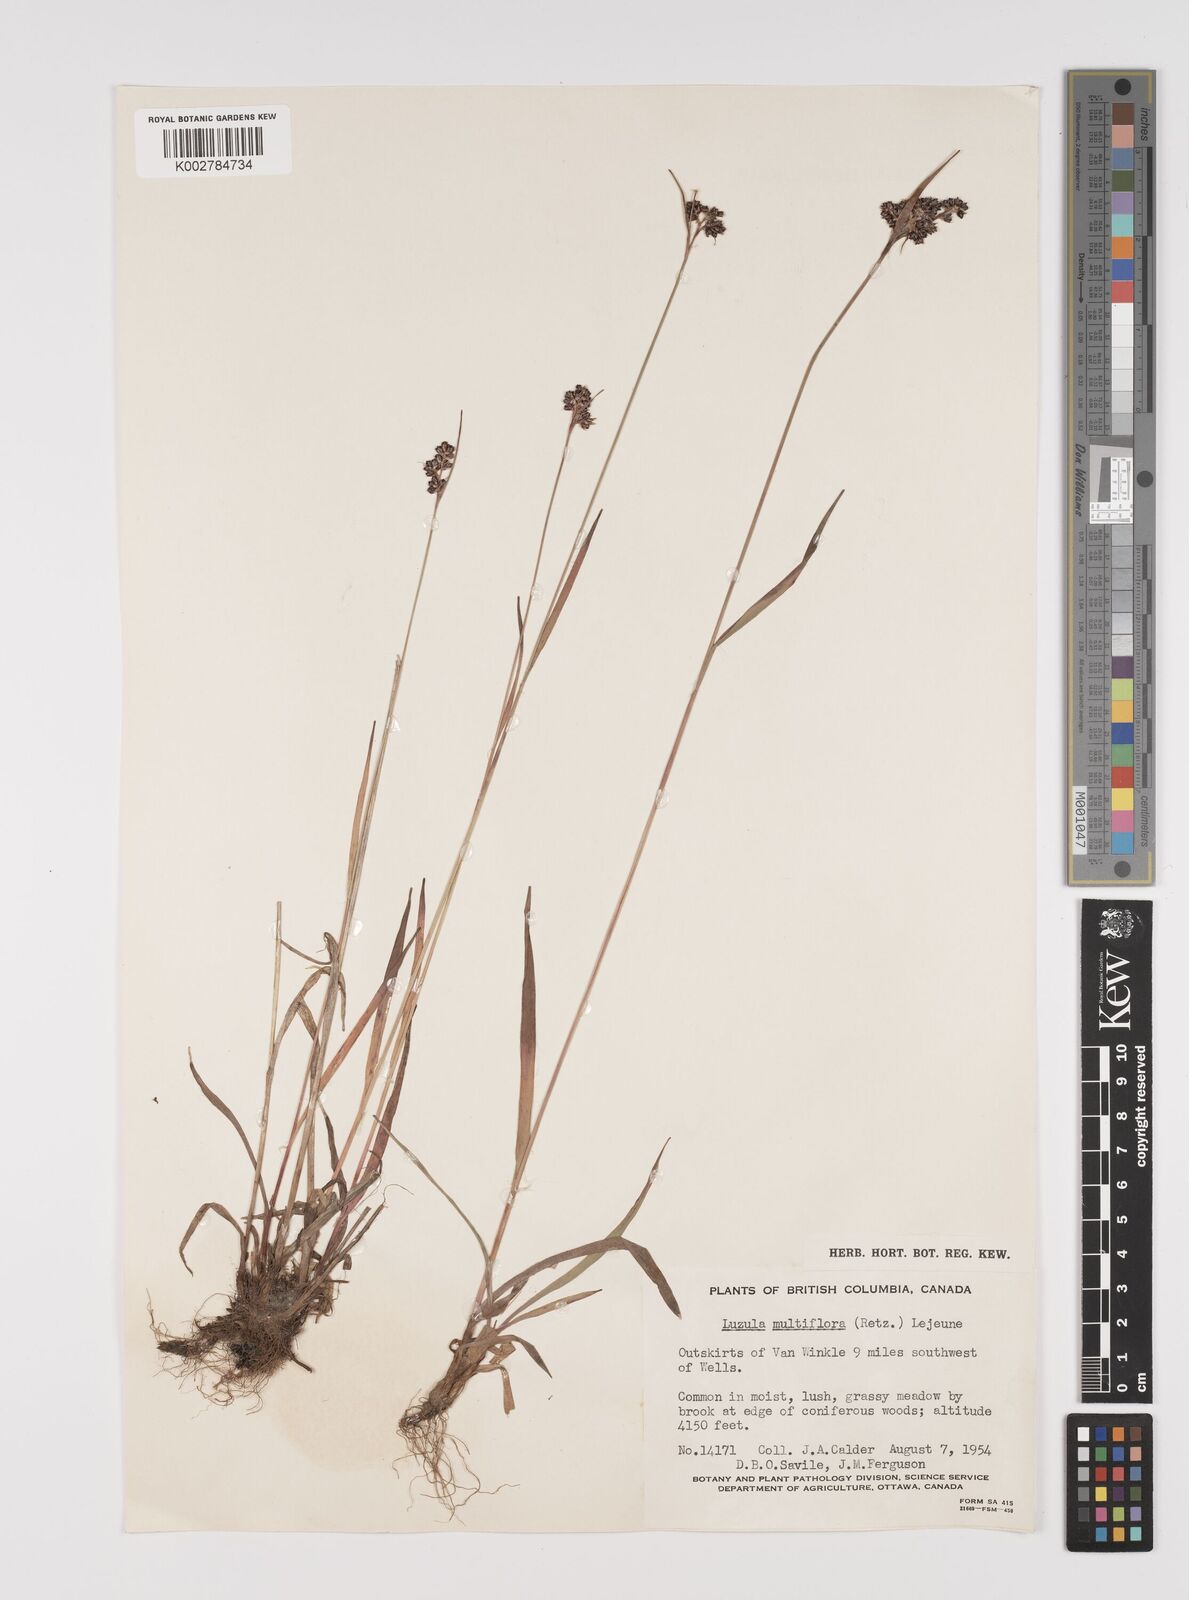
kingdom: Plantae
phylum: Tracheophyta
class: Liliopsida
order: Poales
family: Juncaceae
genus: Luzula
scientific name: Luzula campestris
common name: Field wood-rush
